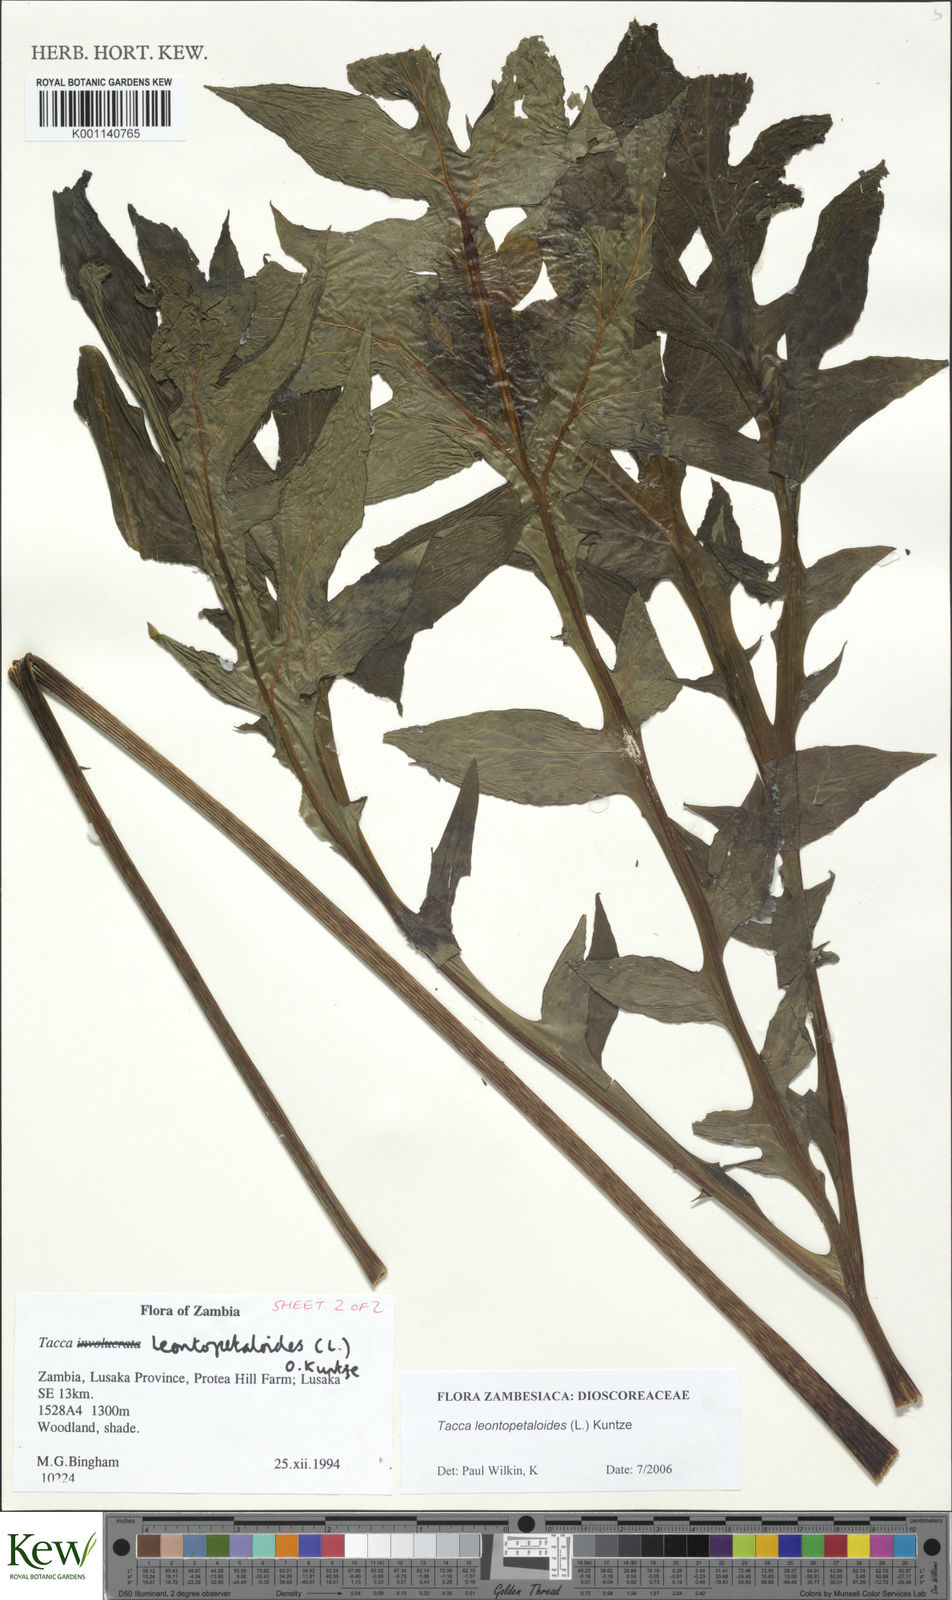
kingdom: Plantae
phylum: Tracheophyta
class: Liliopsida
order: Dioscoreales
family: Dioscoreaceae
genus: Tacca
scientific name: Tacca leontopetaloides
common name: Arrowroot
